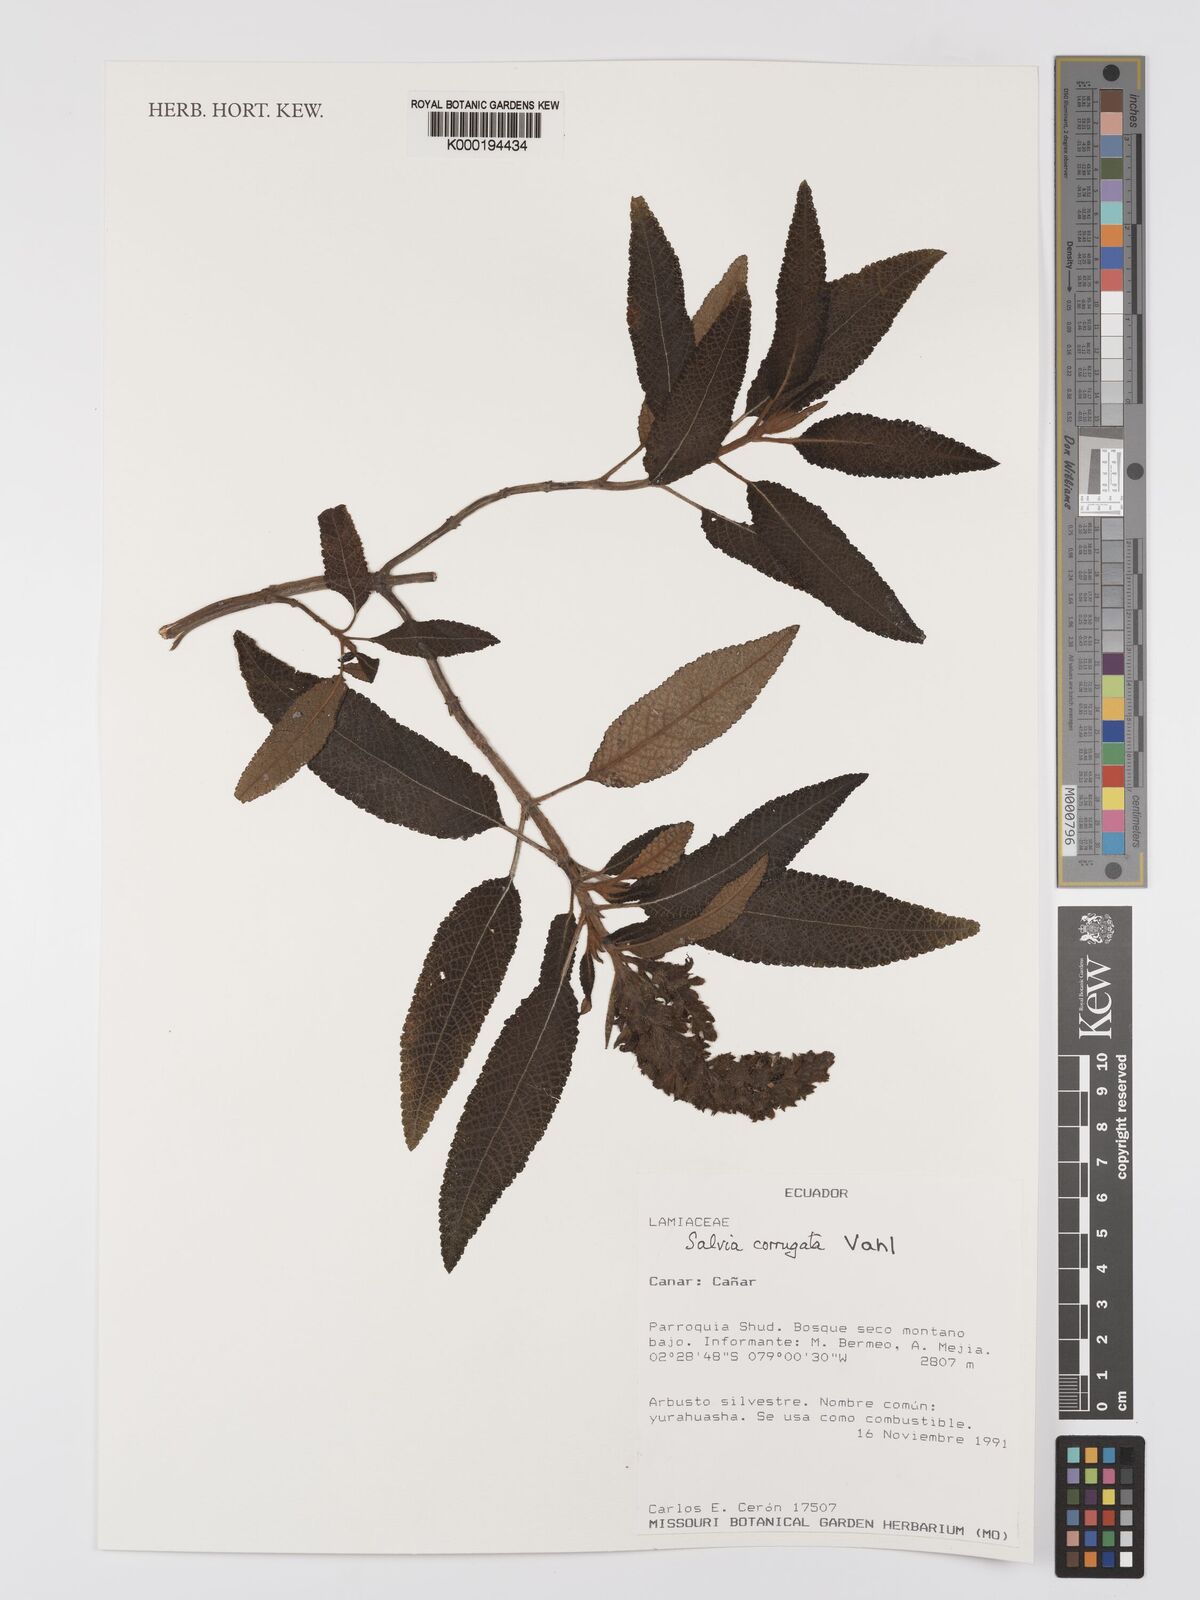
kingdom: Plantae
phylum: Tracheophyta
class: Magnoliopsida
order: Lamiales
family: Lamiaceae
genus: Salvia
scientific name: Salvia corrugata
